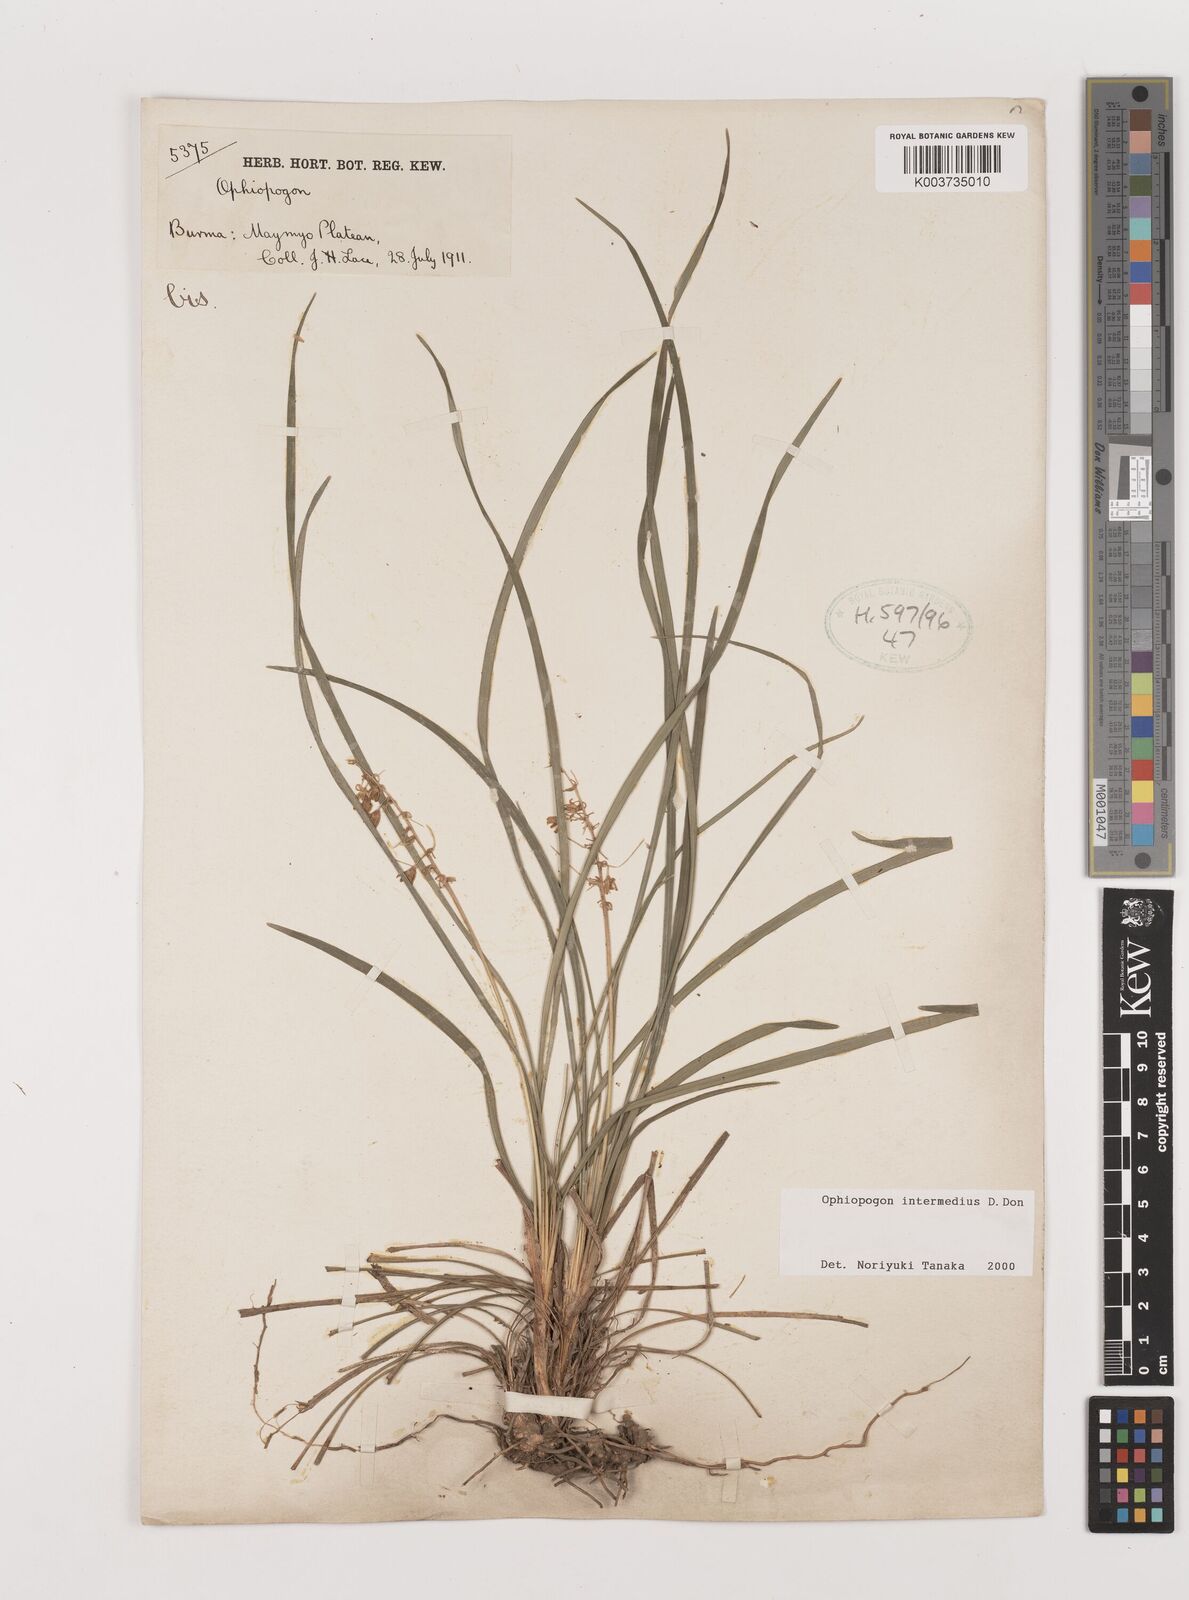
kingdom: Plantae
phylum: Tracheophyta
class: Liliopsida
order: Asparagales
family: Asparagaceae
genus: Ophiopogon
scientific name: Ophiopogon intermedius
